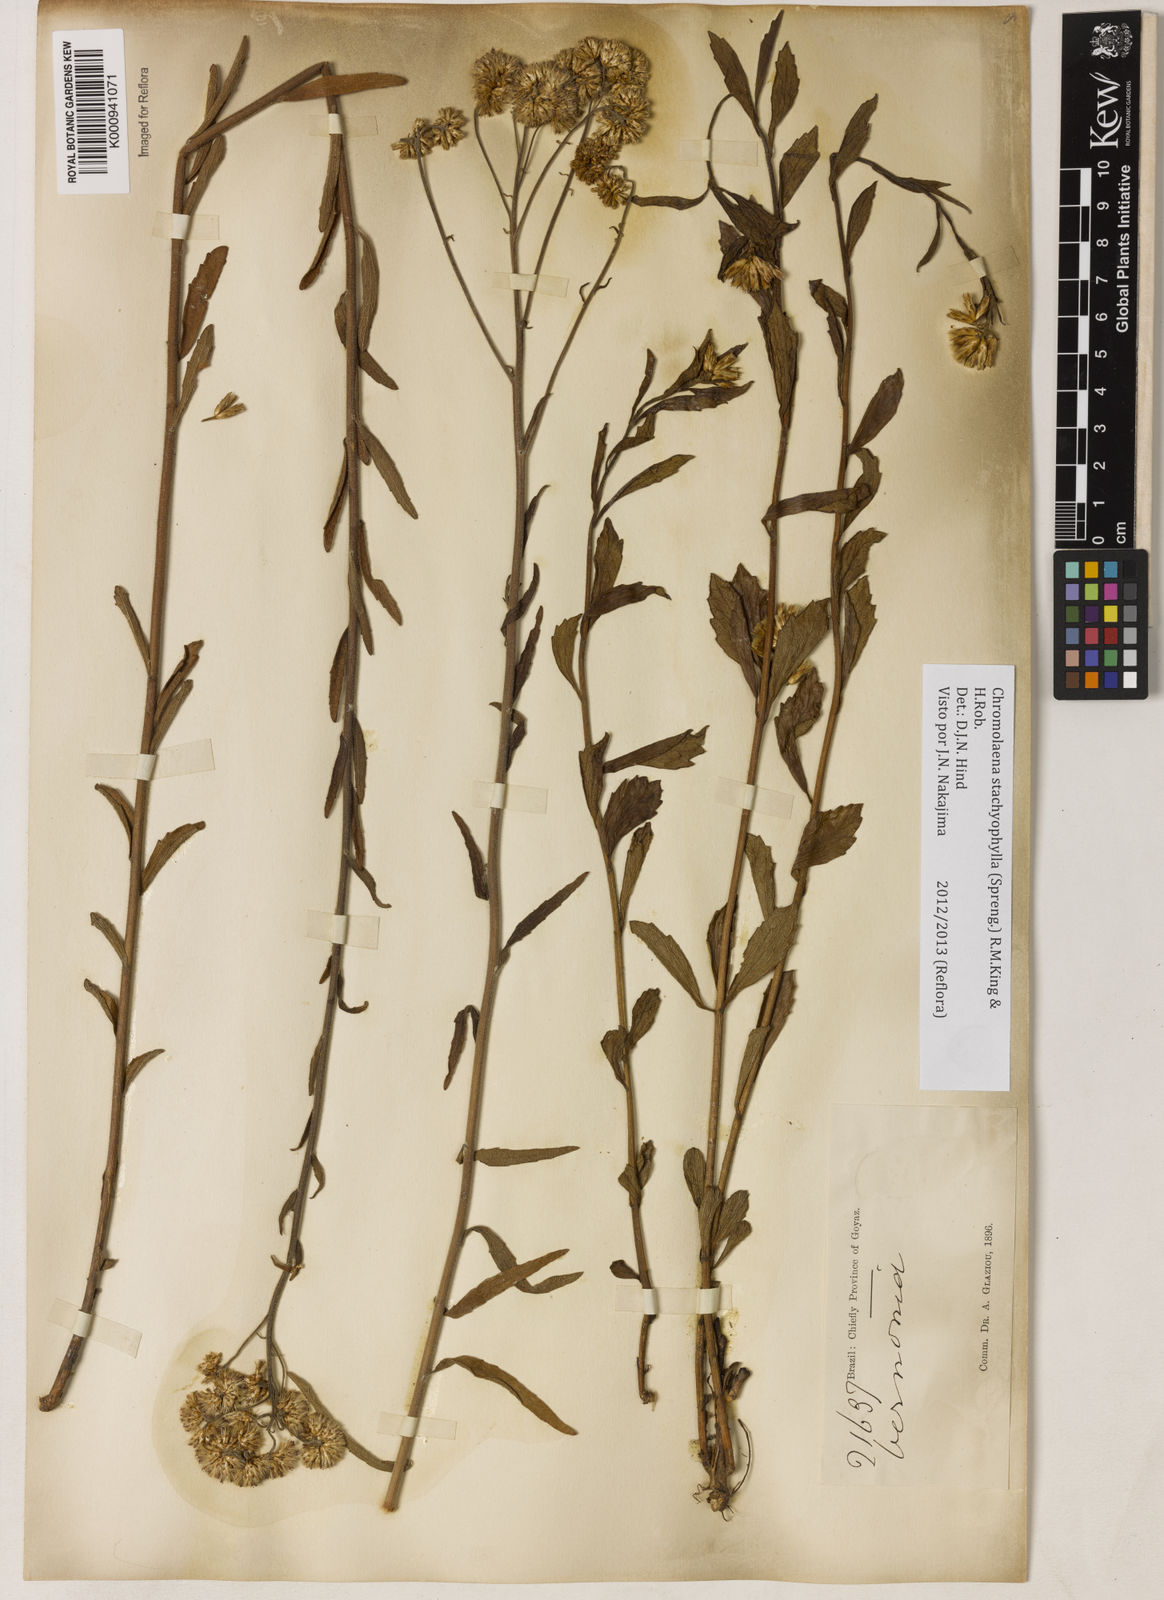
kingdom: Plantae
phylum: Tracheophyta
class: Magnoliopsida
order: Asterales
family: Asteraceae
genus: Chromolaena
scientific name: Chromolaena stachyophylla
